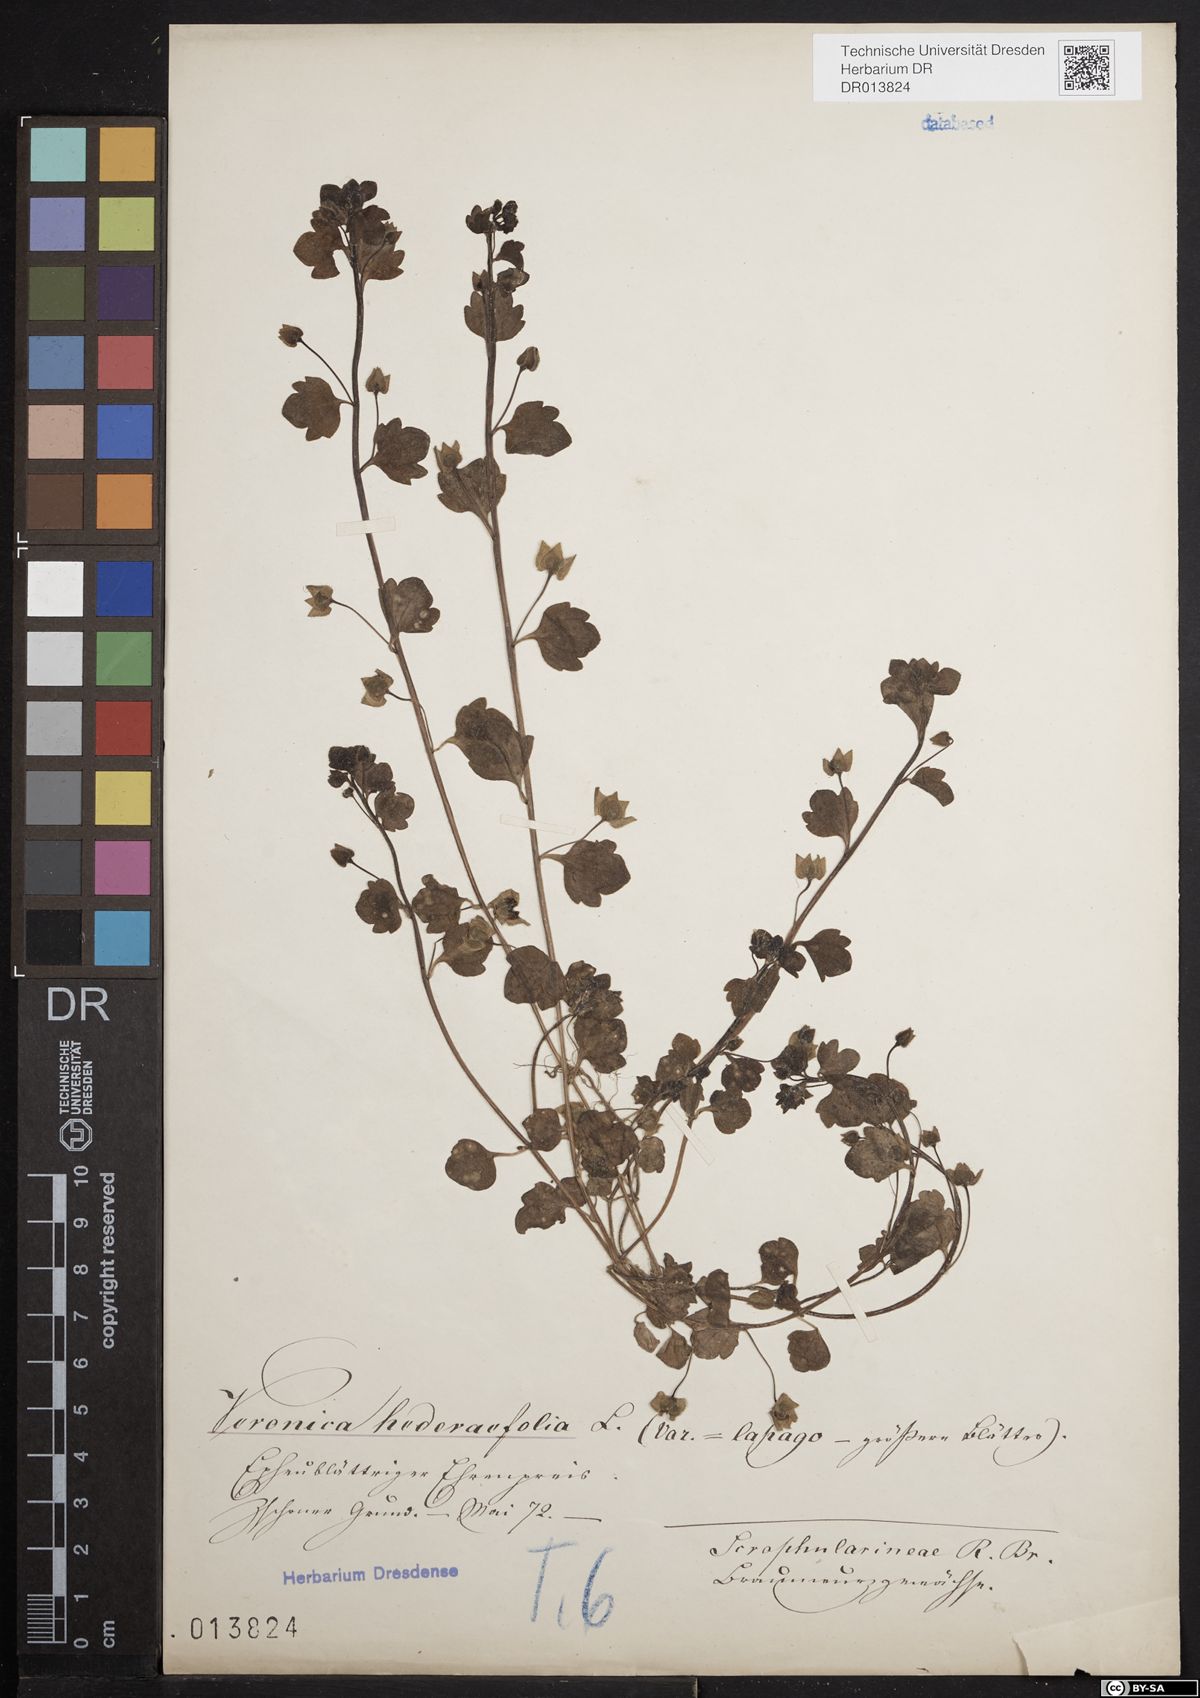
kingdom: Plantae
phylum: Tracheophyta
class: Magnoliopsida
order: Lamiales
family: Plantaginaceae
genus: Veronica
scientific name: Veronica hederifolia
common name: Ivy-leaved speedwell
